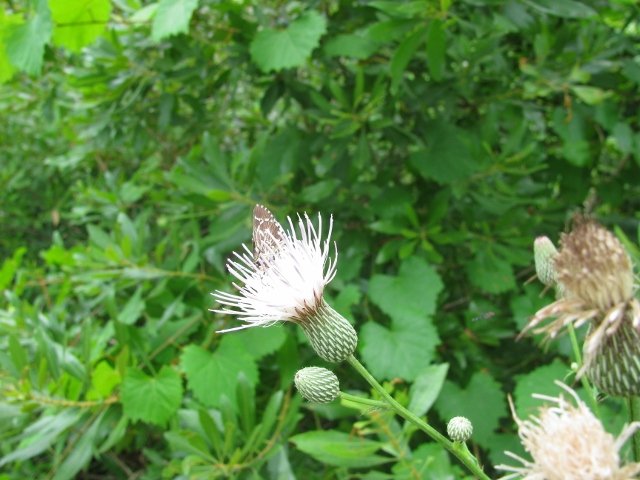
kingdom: Animalia
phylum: Arthropoda
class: Insecta
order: Lepidoptera
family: Hesperiidae
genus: Mastor
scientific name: Mastor aesculapius
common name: Lace-winged Roadside-Skipper
